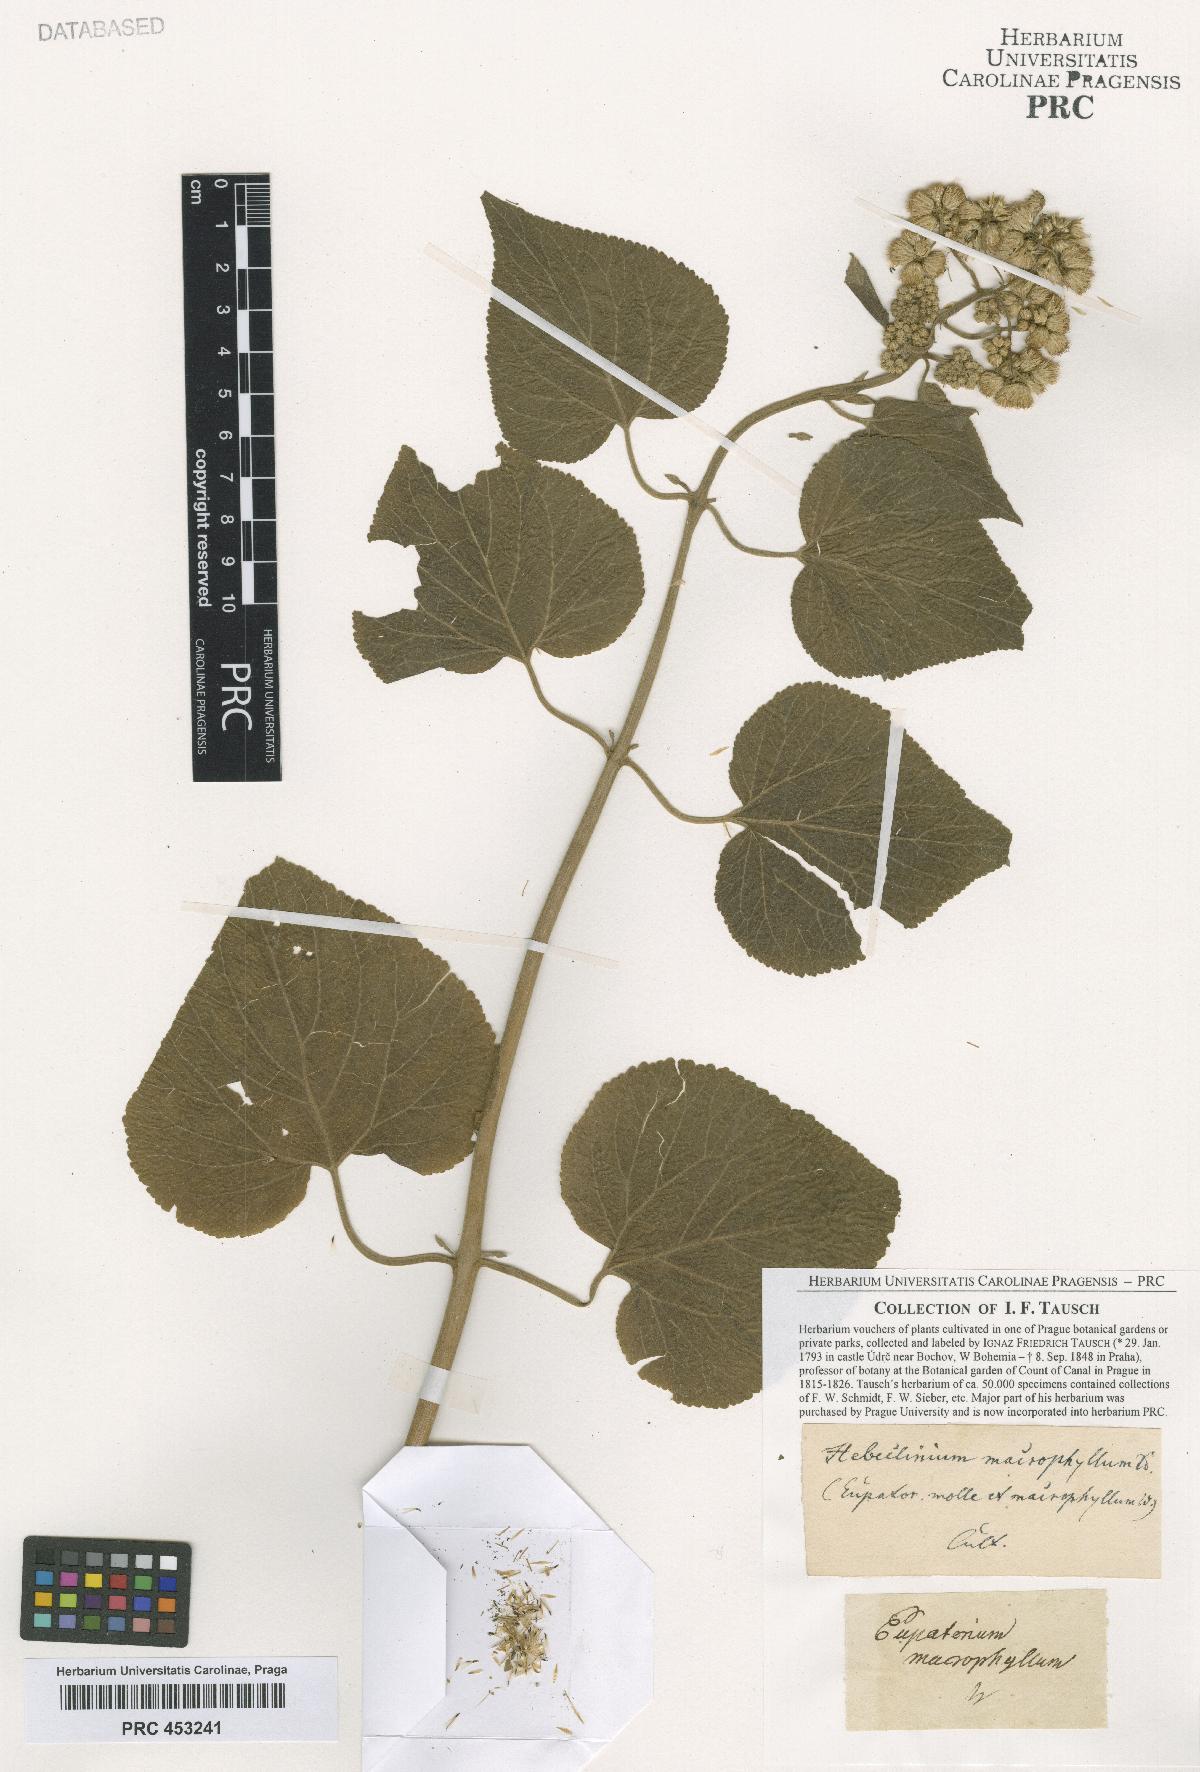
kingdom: Plantae
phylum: Tracheophyta
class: Magnoliopsida
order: Asterales
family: Asteraceae
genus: Hebeclinium
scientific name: Hebeclinium
